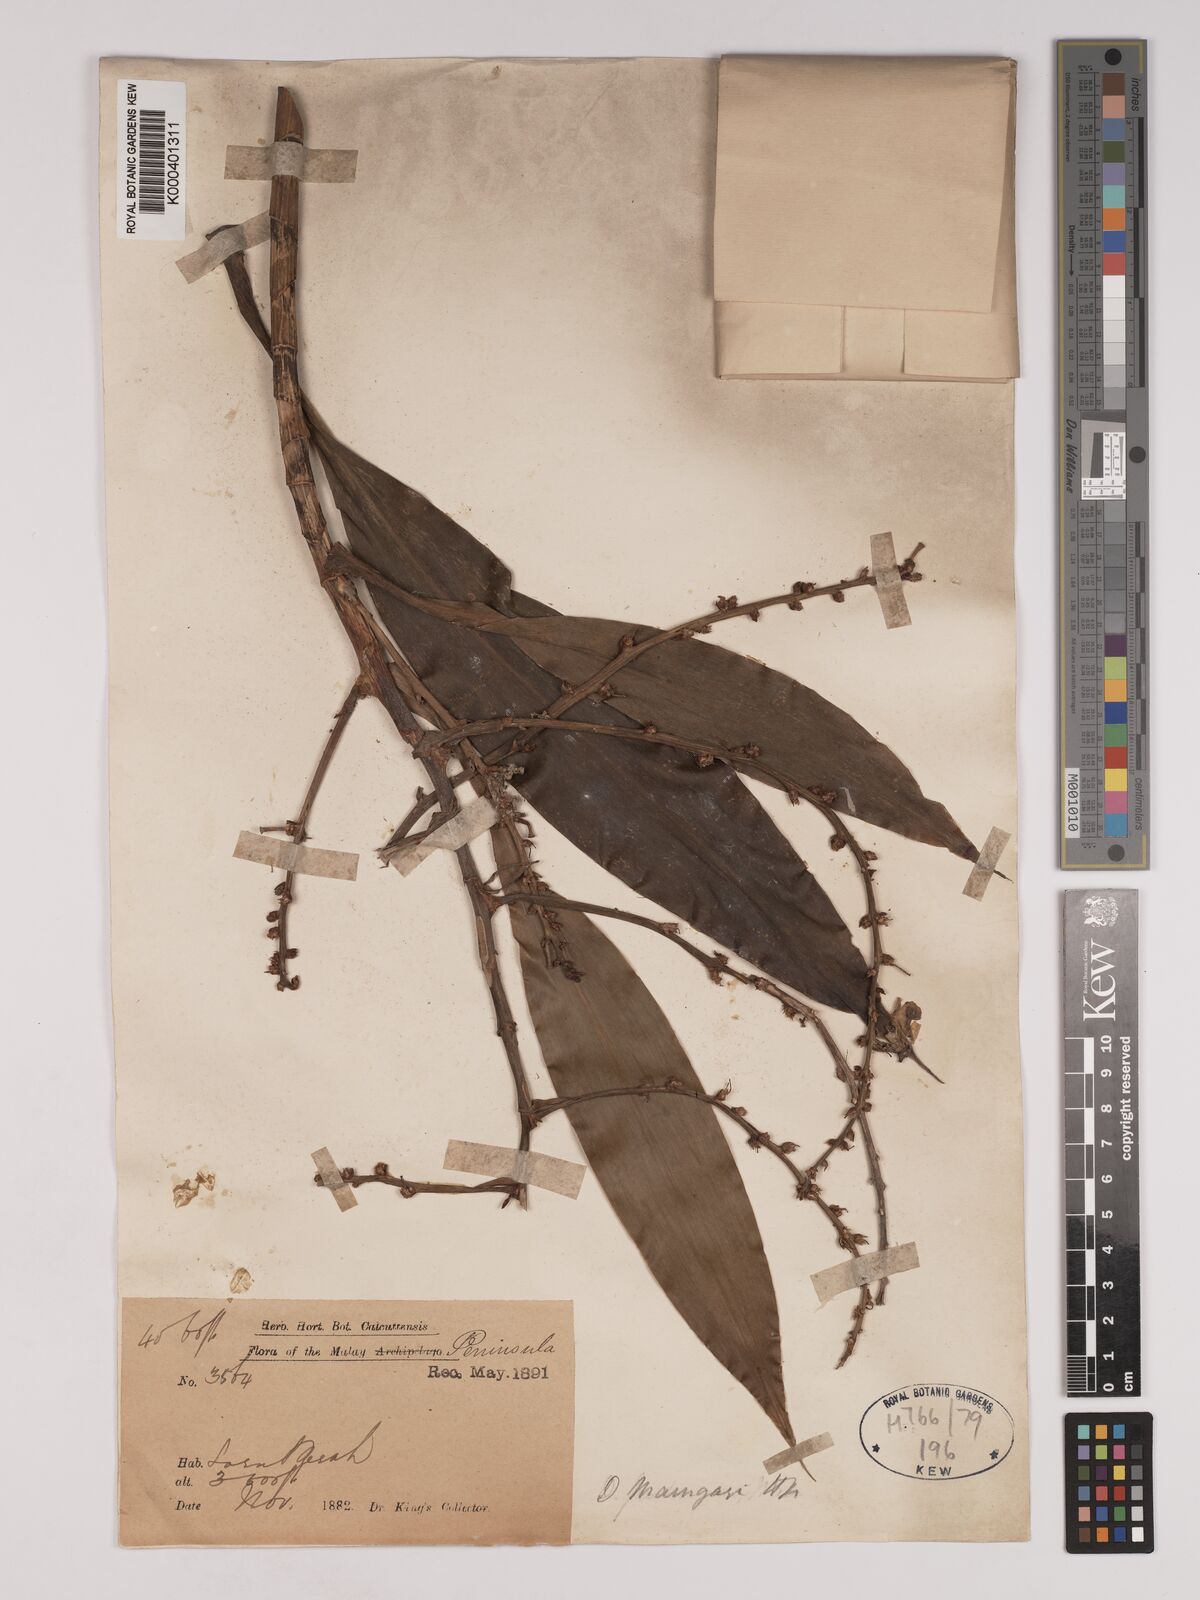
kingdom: Plantae
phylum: Tracheophyta
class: Liliopsida
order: Asparagales
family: Asparagaceae
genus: Dracaena
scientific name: Dracaena maingayi
